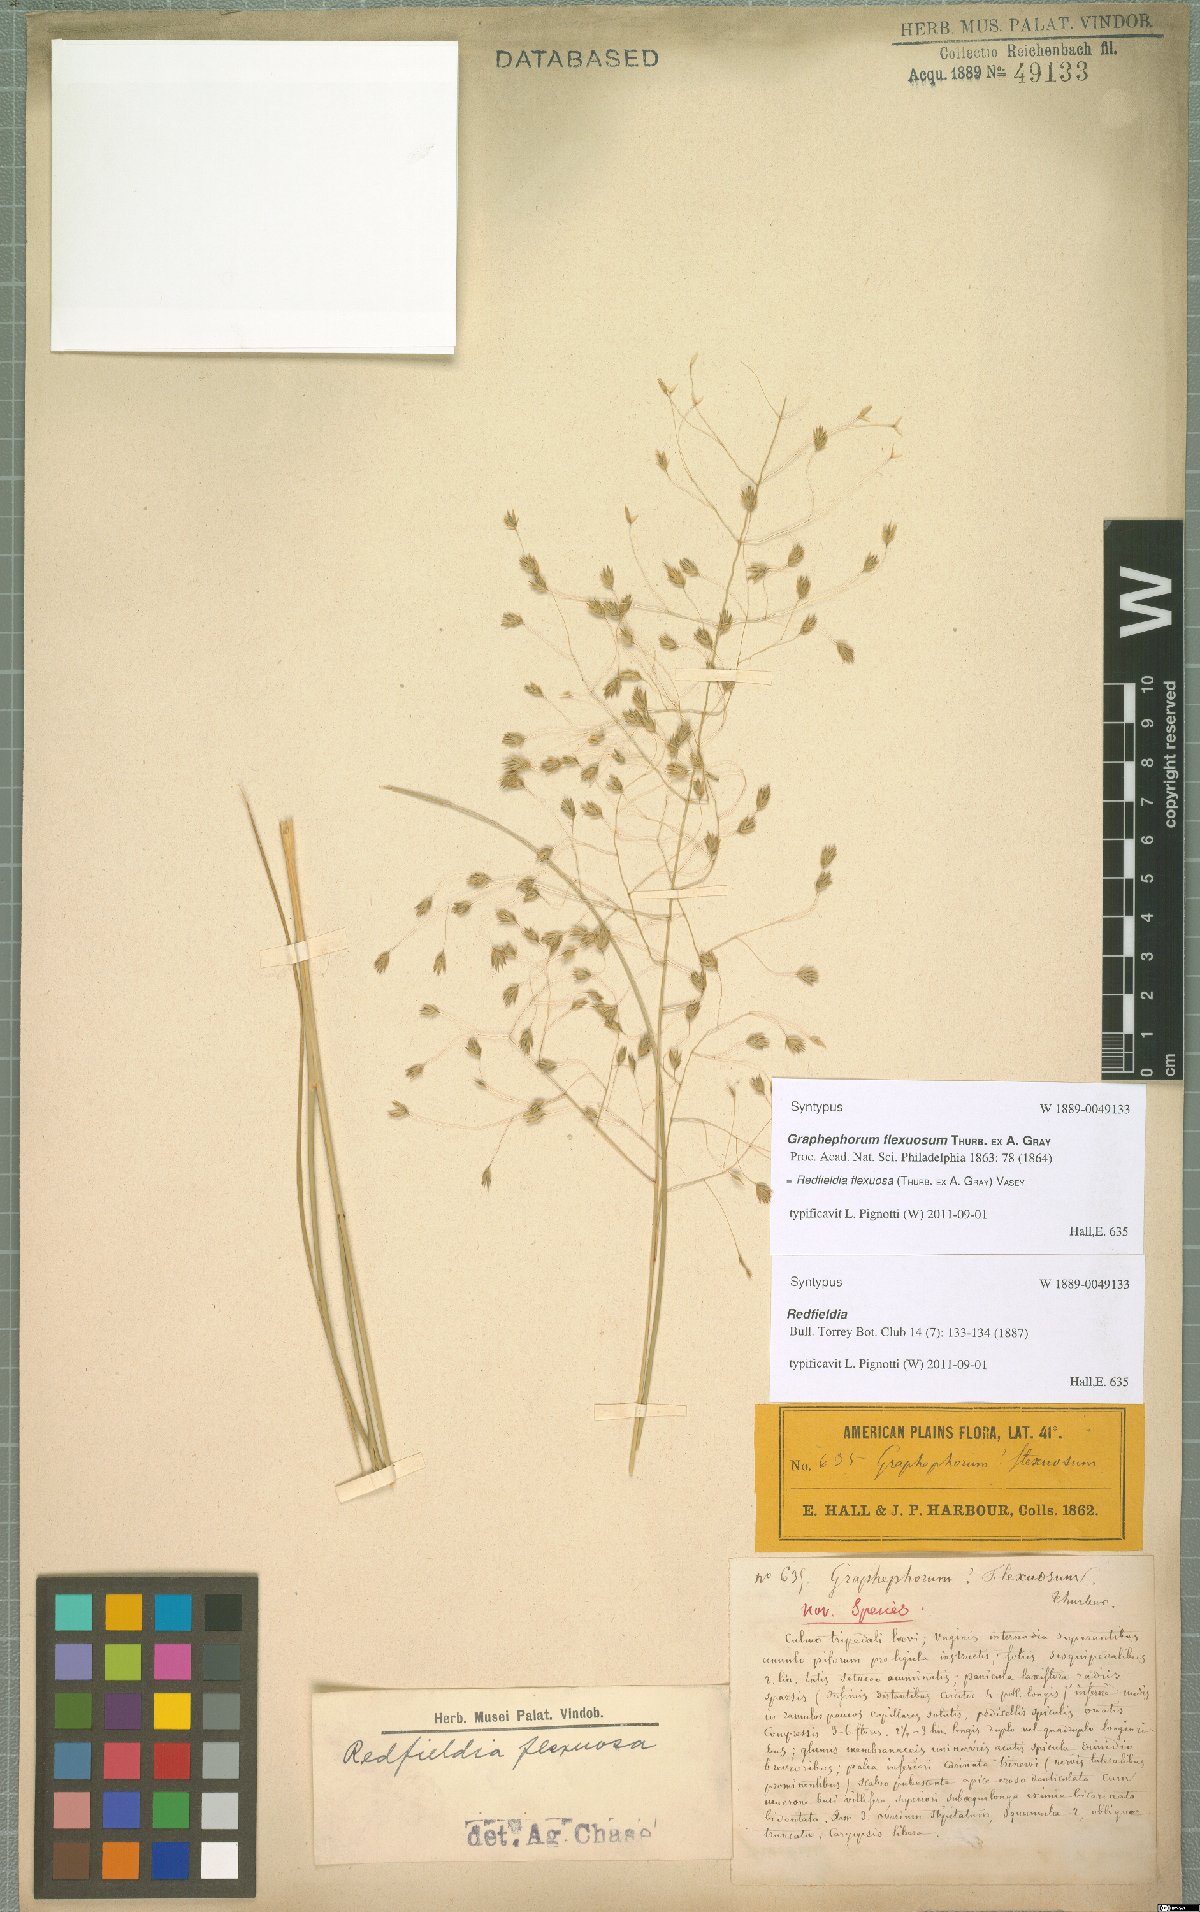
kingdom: Plantae
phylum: Tracheophyta
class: Liliopsida
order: Poales
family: Poaceae
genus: Muhlenbergia
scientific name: Muhlenbergia multiflora
